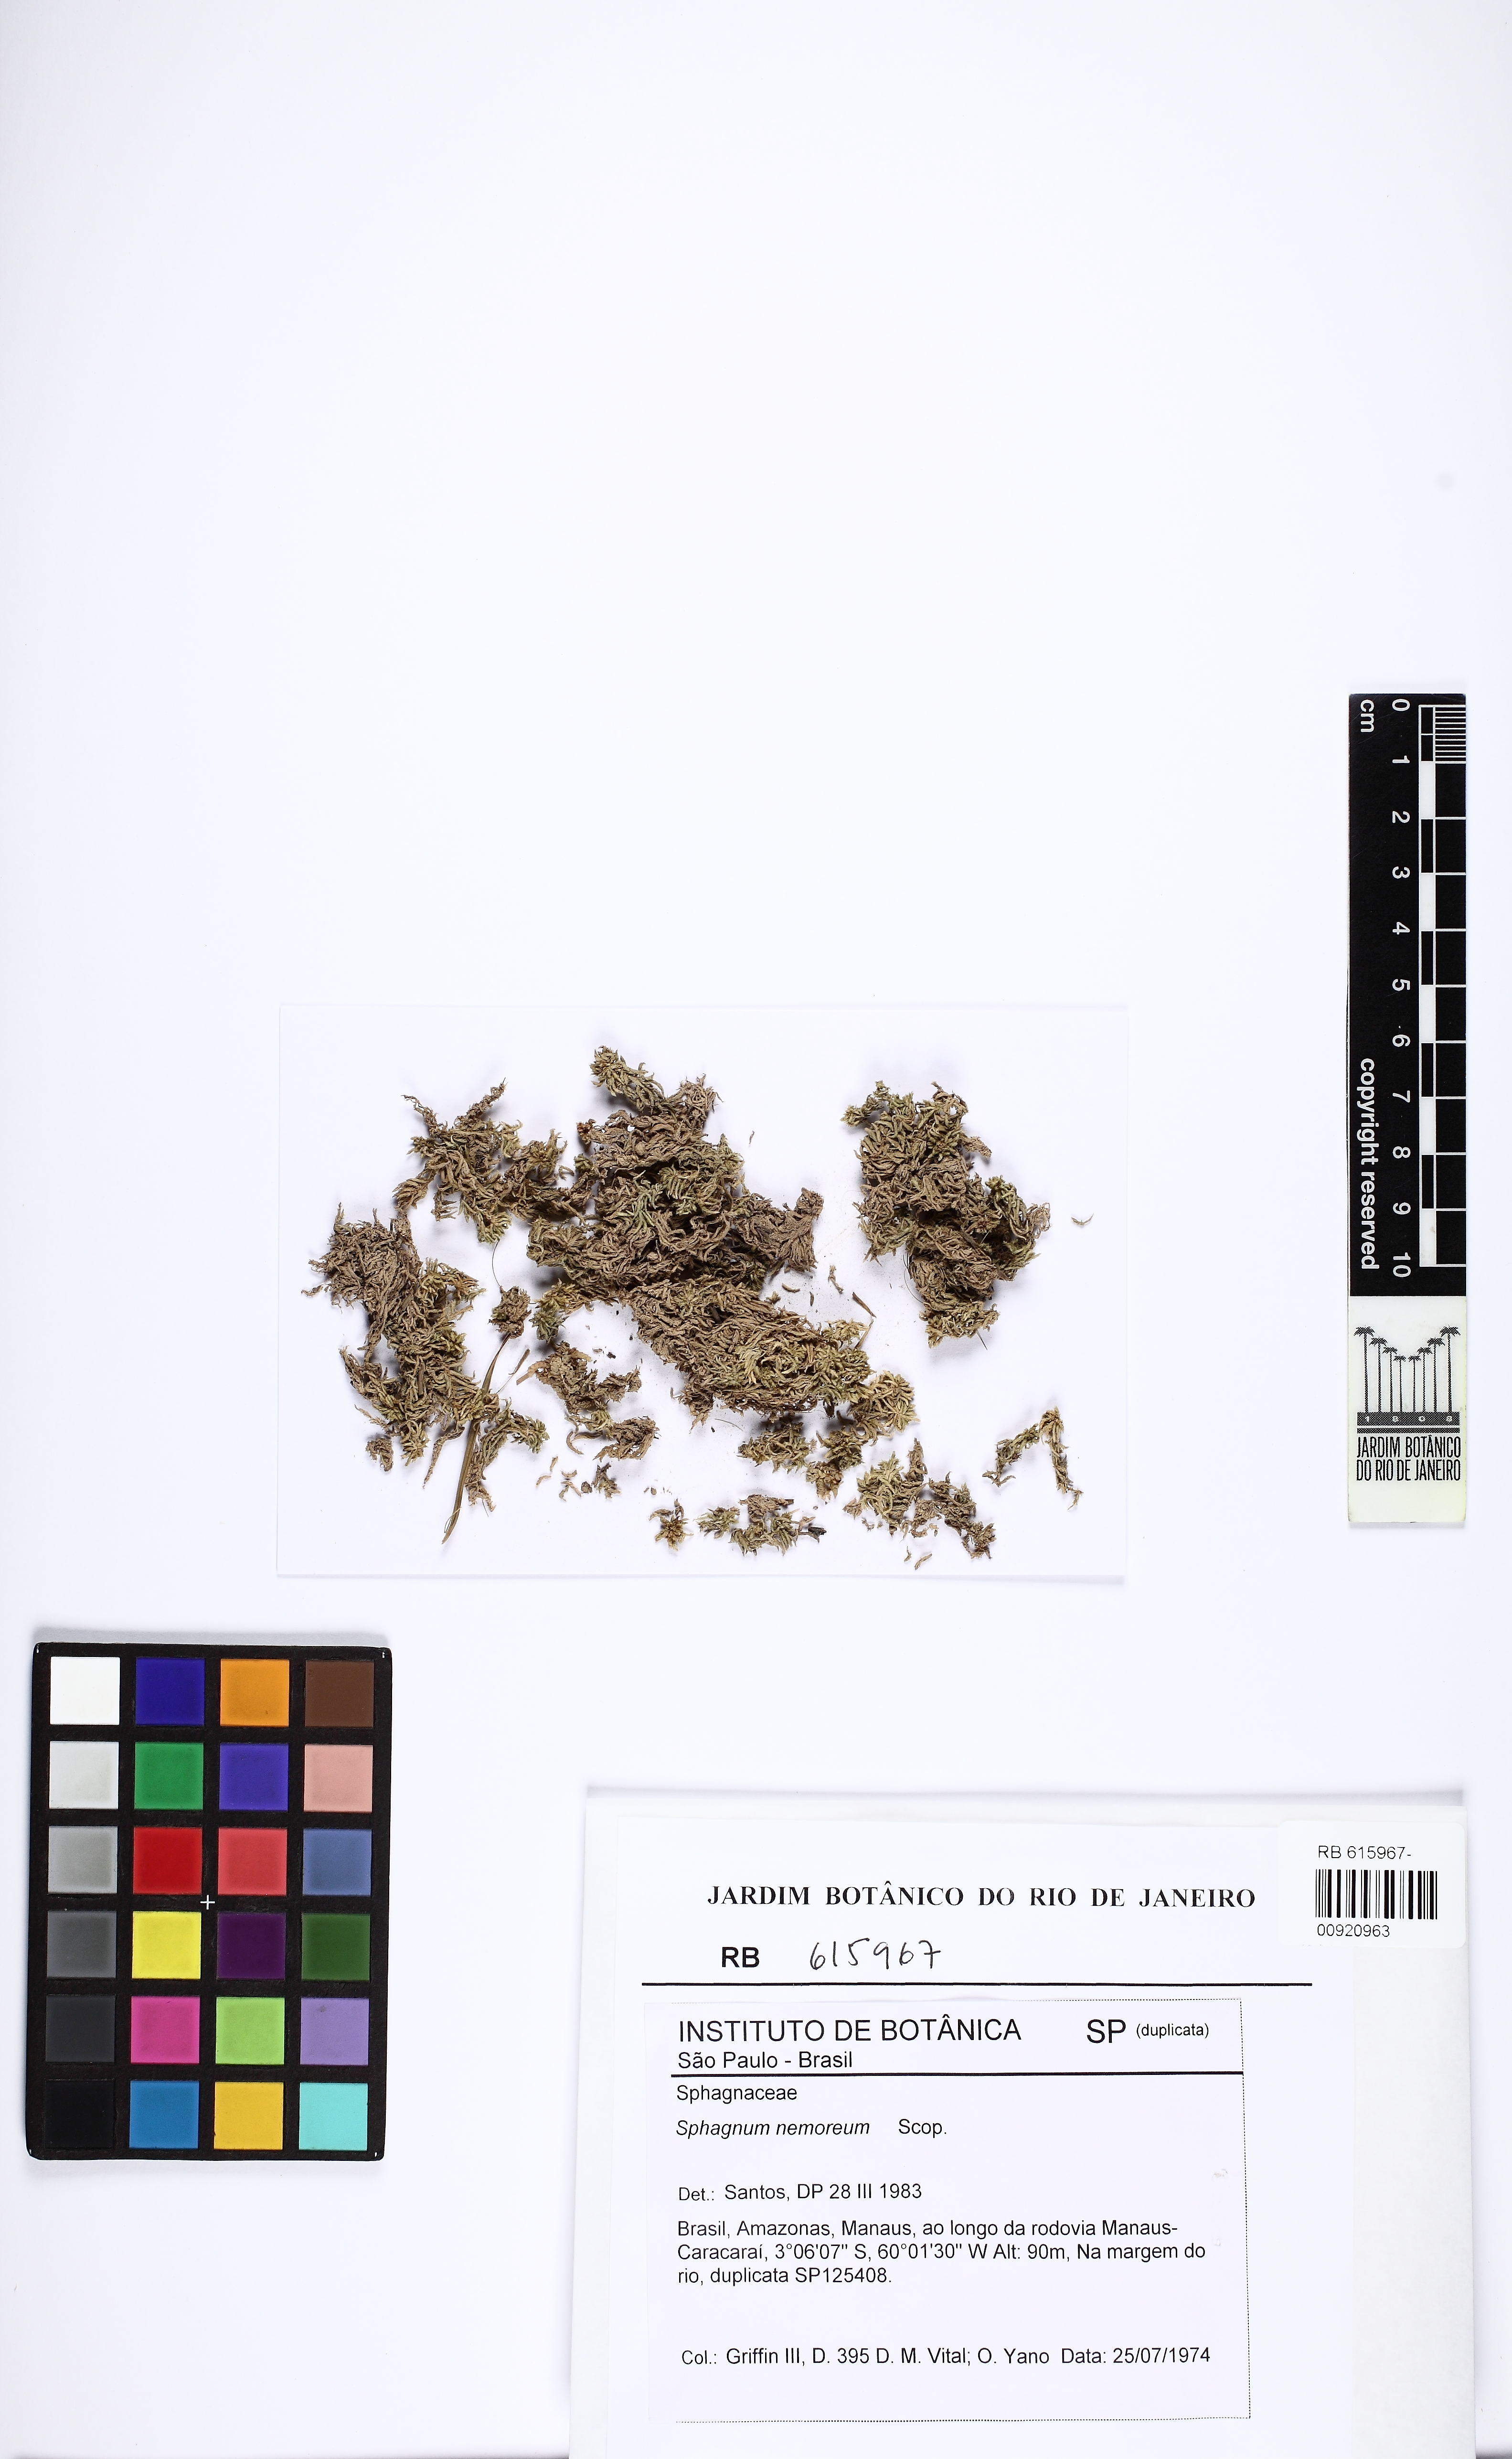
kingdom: Plantae
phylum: Bryophyta
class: Sphagnopsida
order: Sphagnales
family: Sphagnaceae
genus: Sphagnum
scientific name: Sphagnum capillifolium
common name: Small red peat moss
